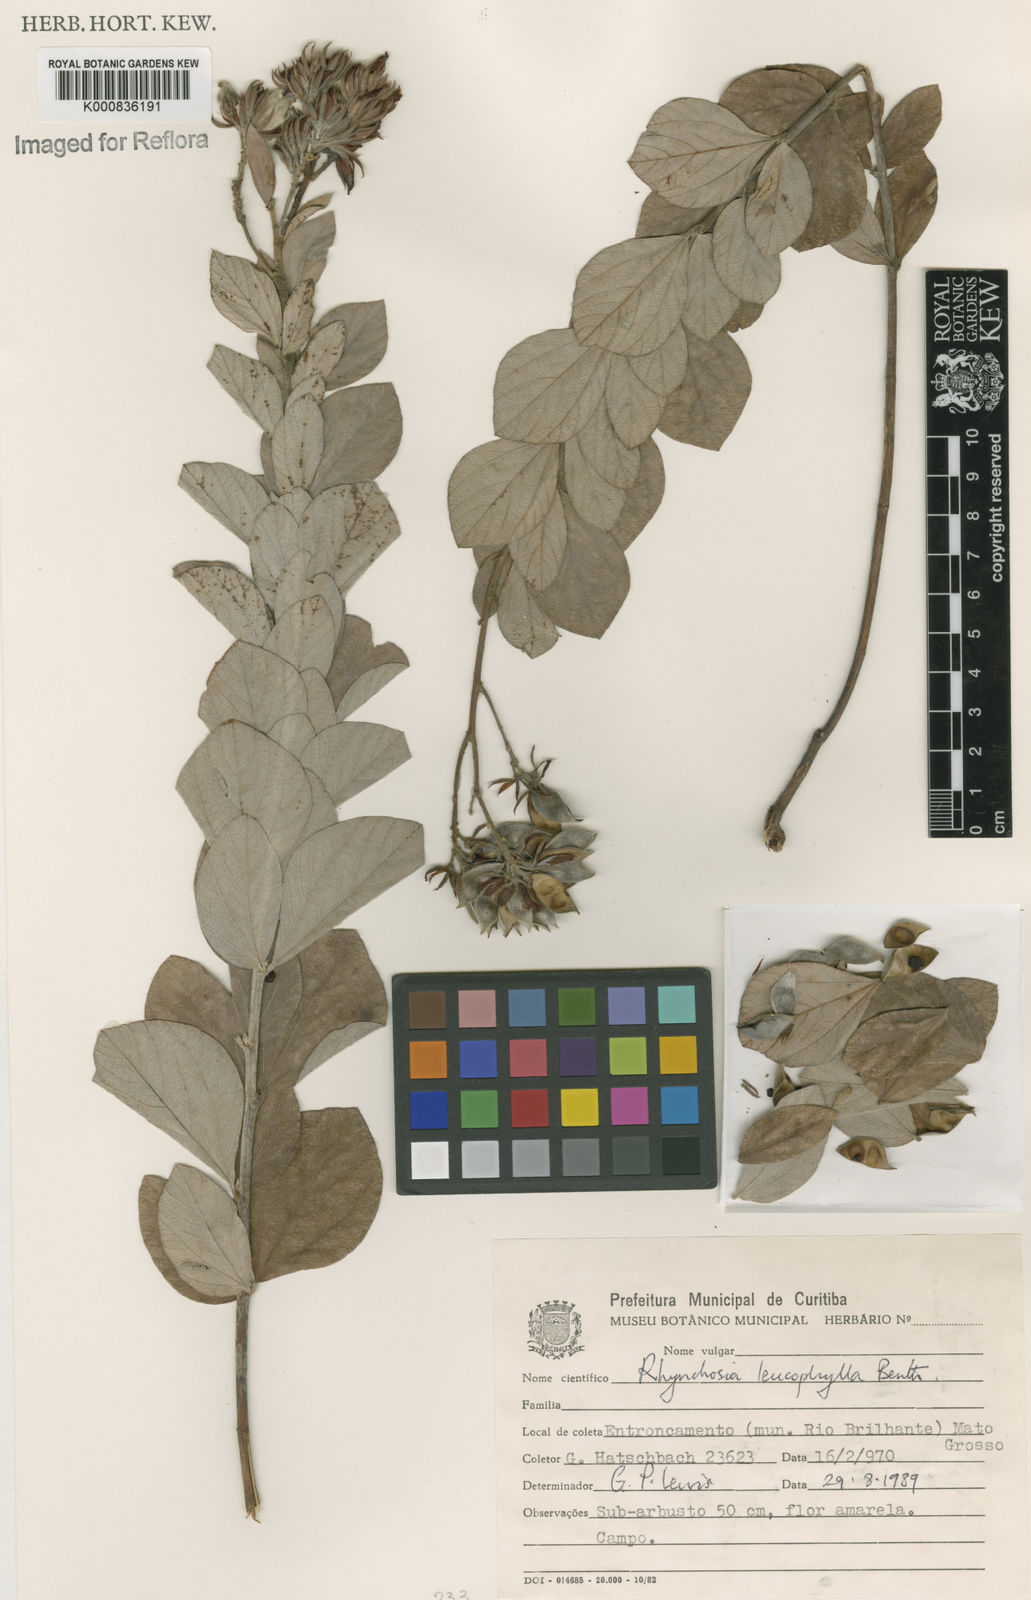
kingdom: Plantae
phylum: Tracheophyta
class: Magnoliopsida
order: Fabales
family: Fabaceae
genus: Rhynchosia
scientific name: Rhynchosia leucophylla
